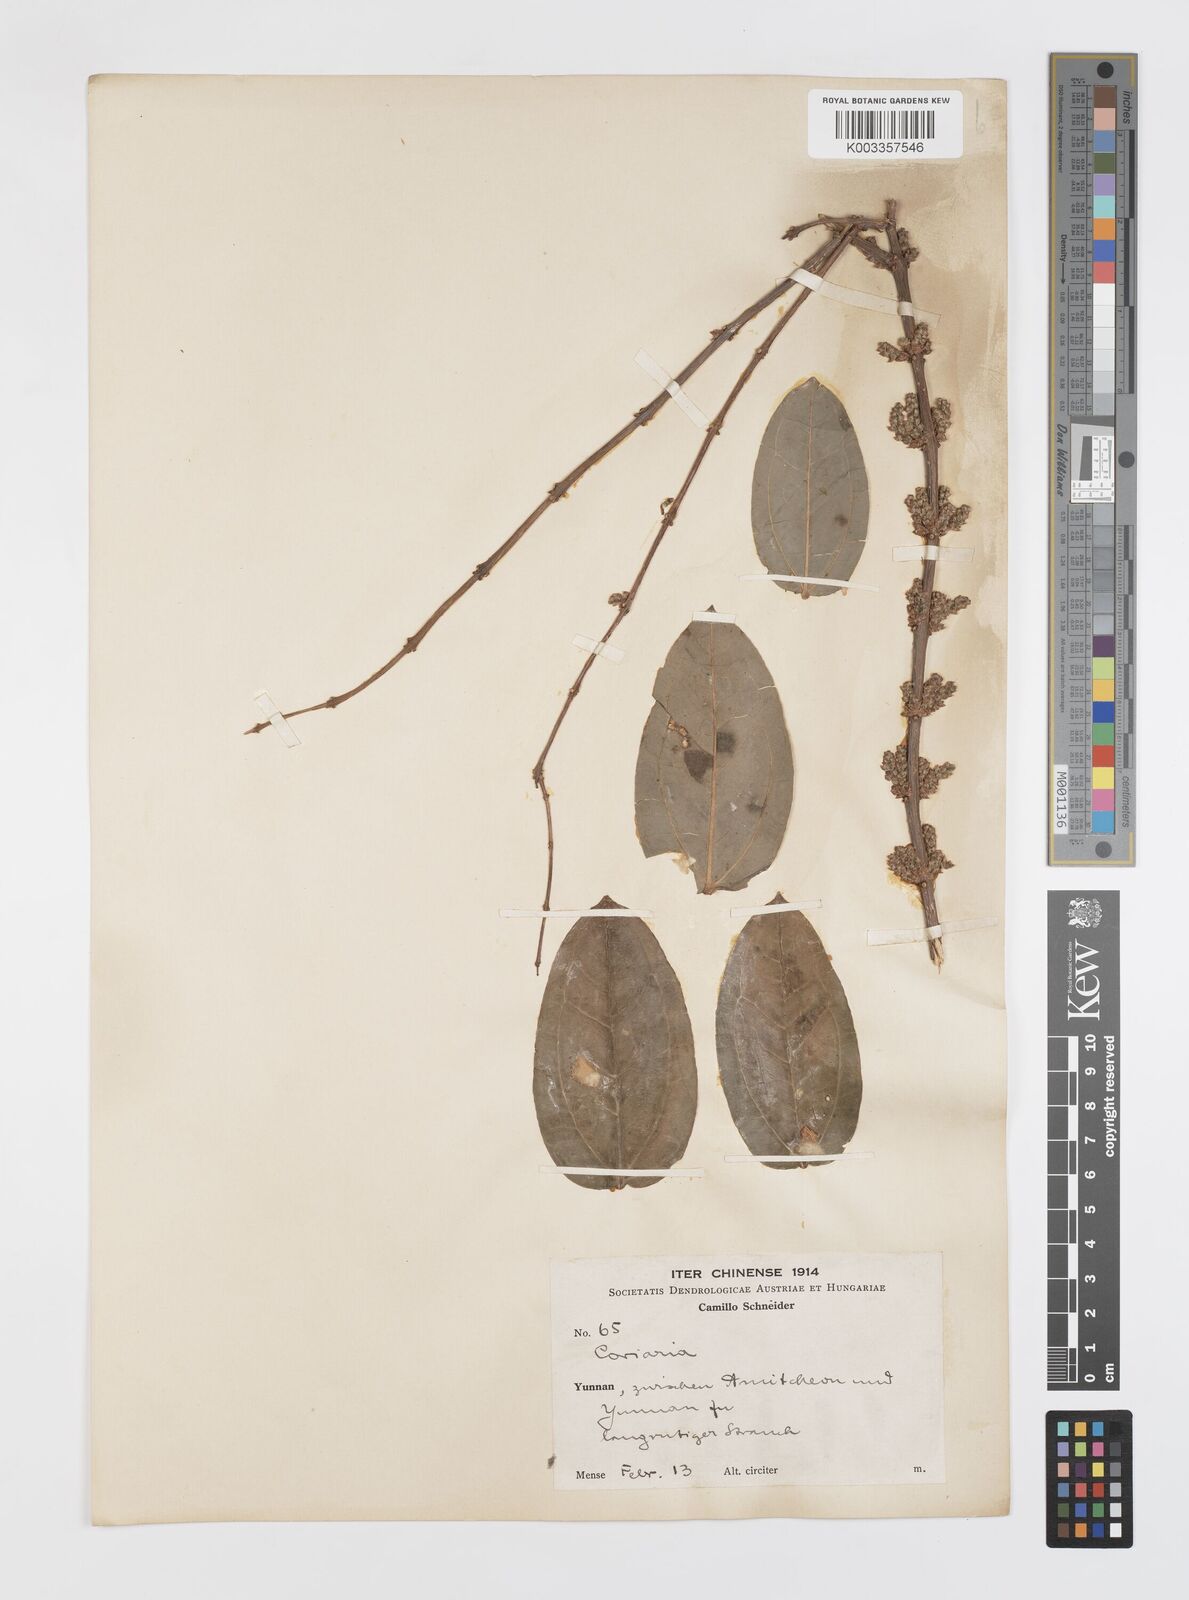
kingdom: Plantae
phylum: Tracheophyta
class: Magnoliopsida
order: Cucurbitales
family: Coriariaceae
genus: Coriaria
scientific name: Coriaria napalensis
